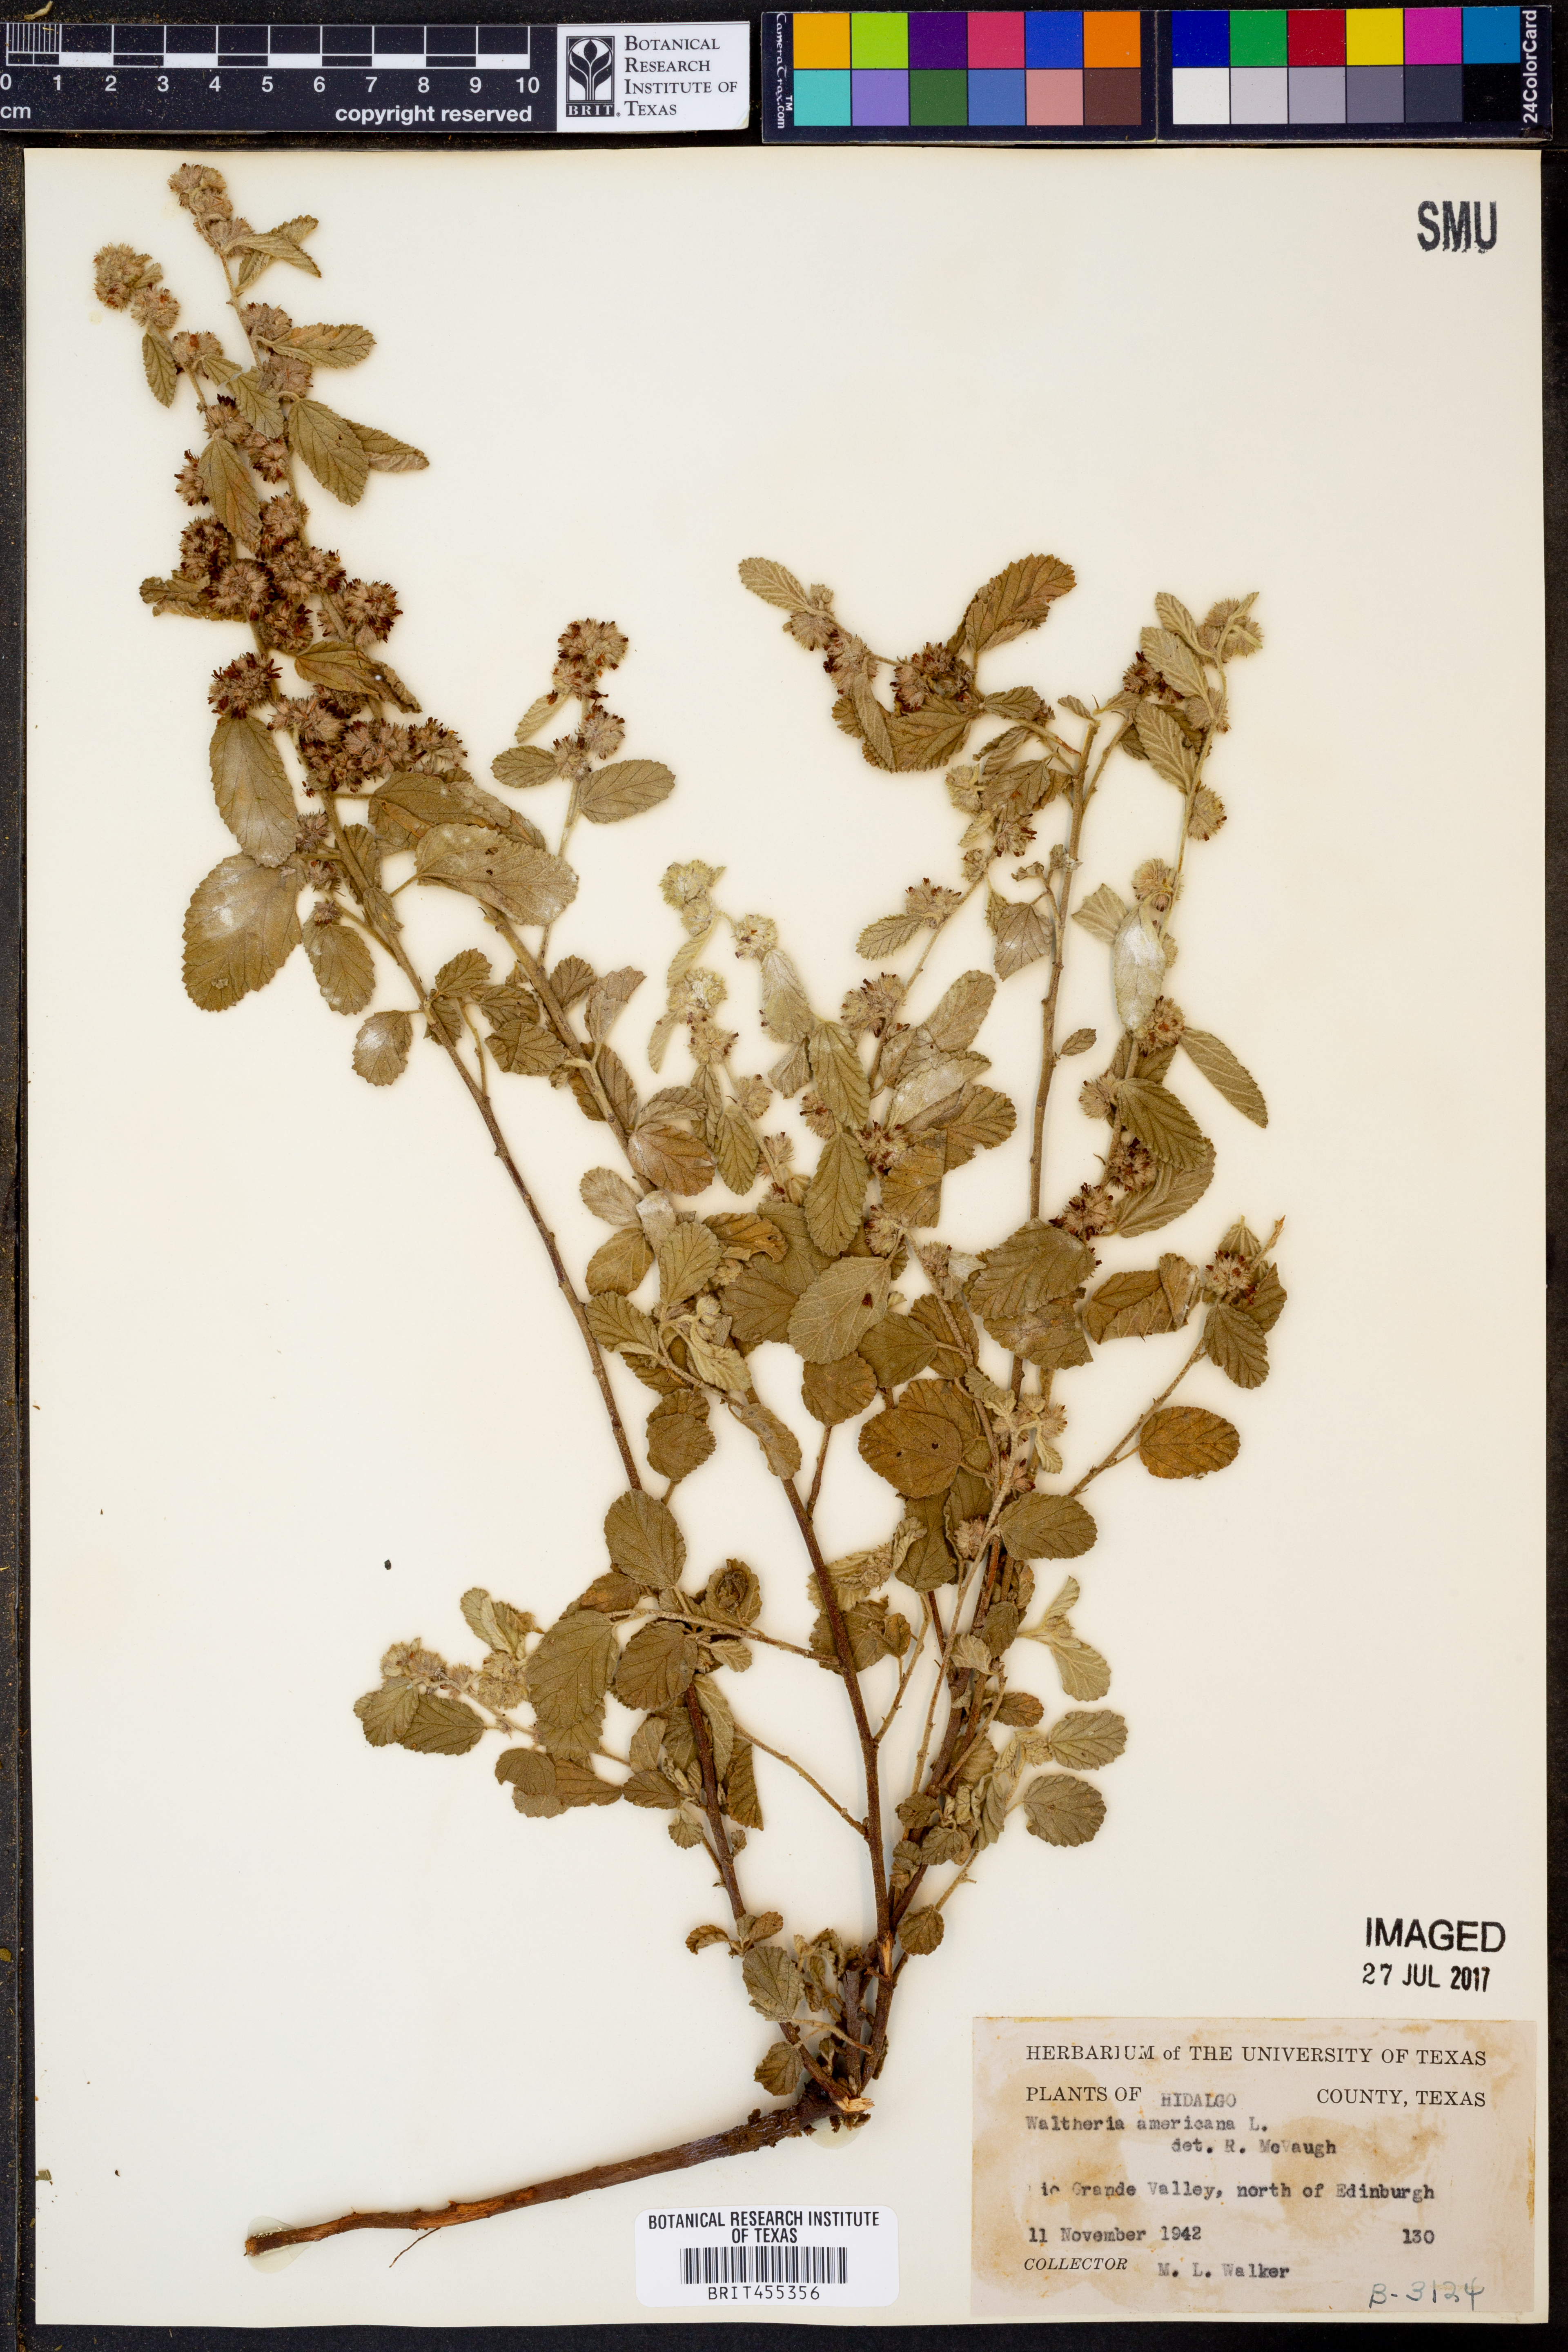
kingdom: Plantae
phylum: Tracheophyta
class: Magnoliopsida
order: Malvales
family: Malvaceae
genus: Waltheria
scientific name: Waltheria indica
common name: Leather-coat
